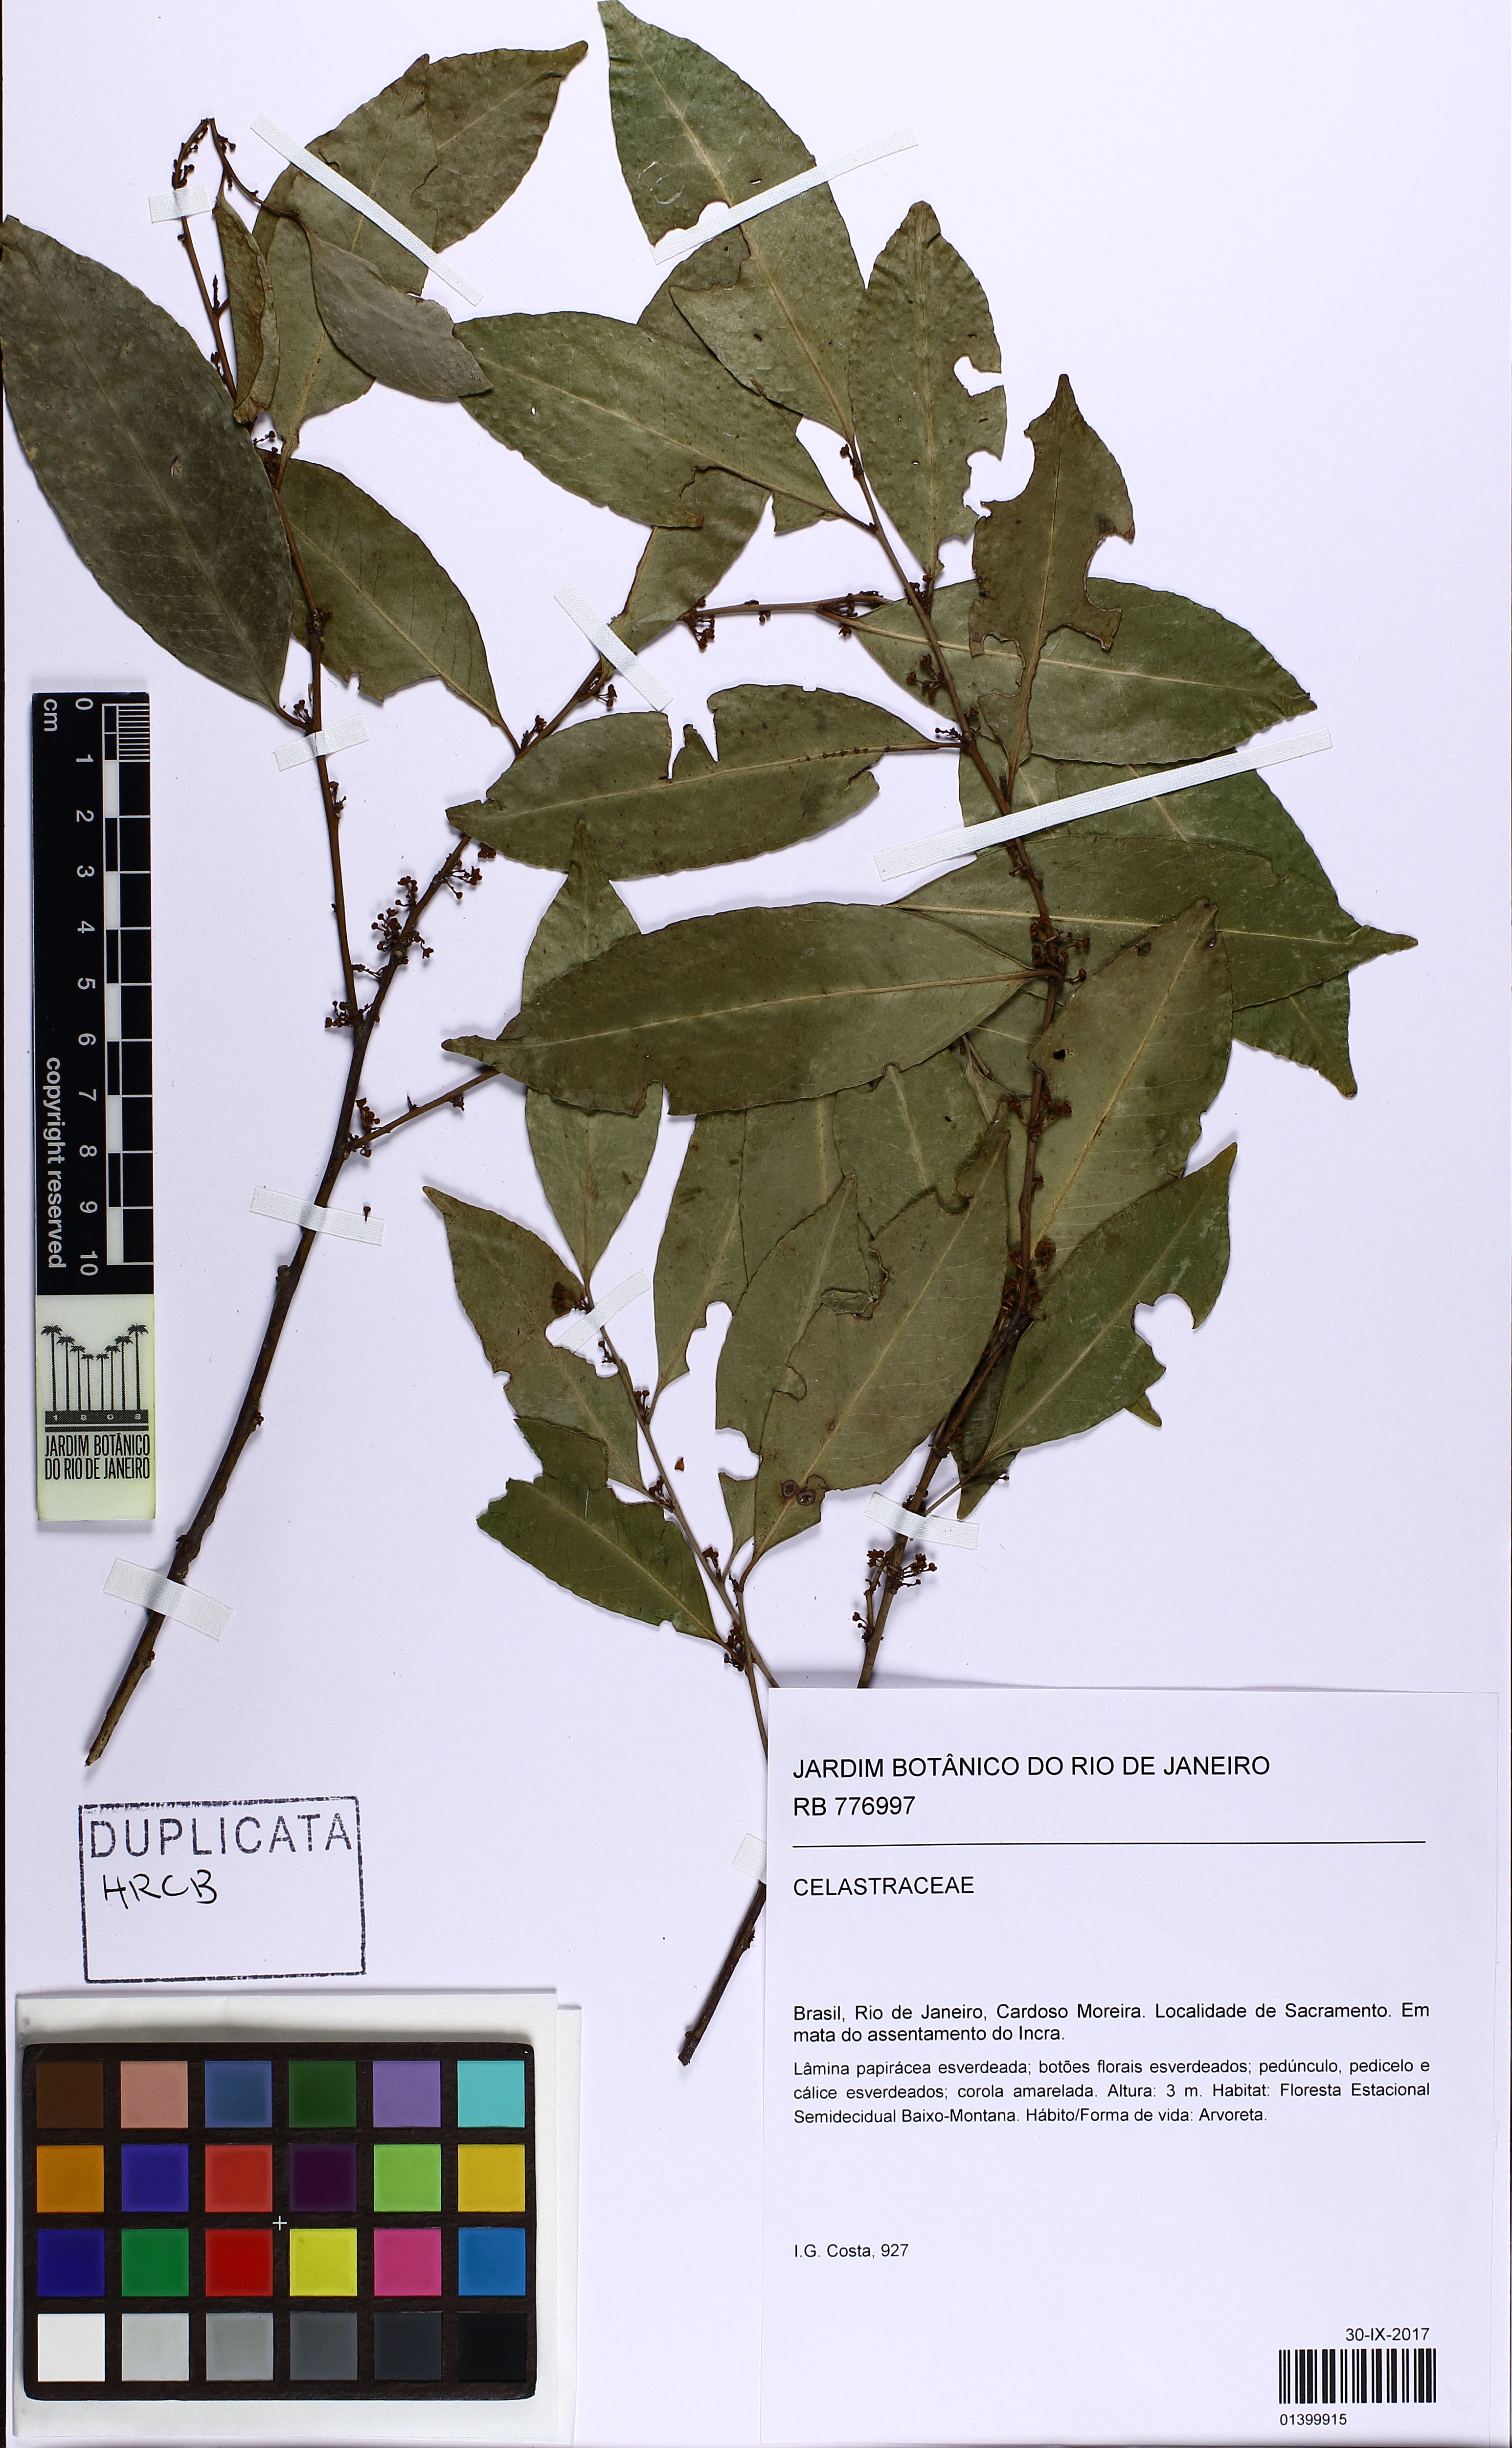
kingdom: Plantae
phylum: Tracheophyta
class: Magnoliopsida
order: Celastrales
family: Celastraceae
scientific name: Celastraceae
